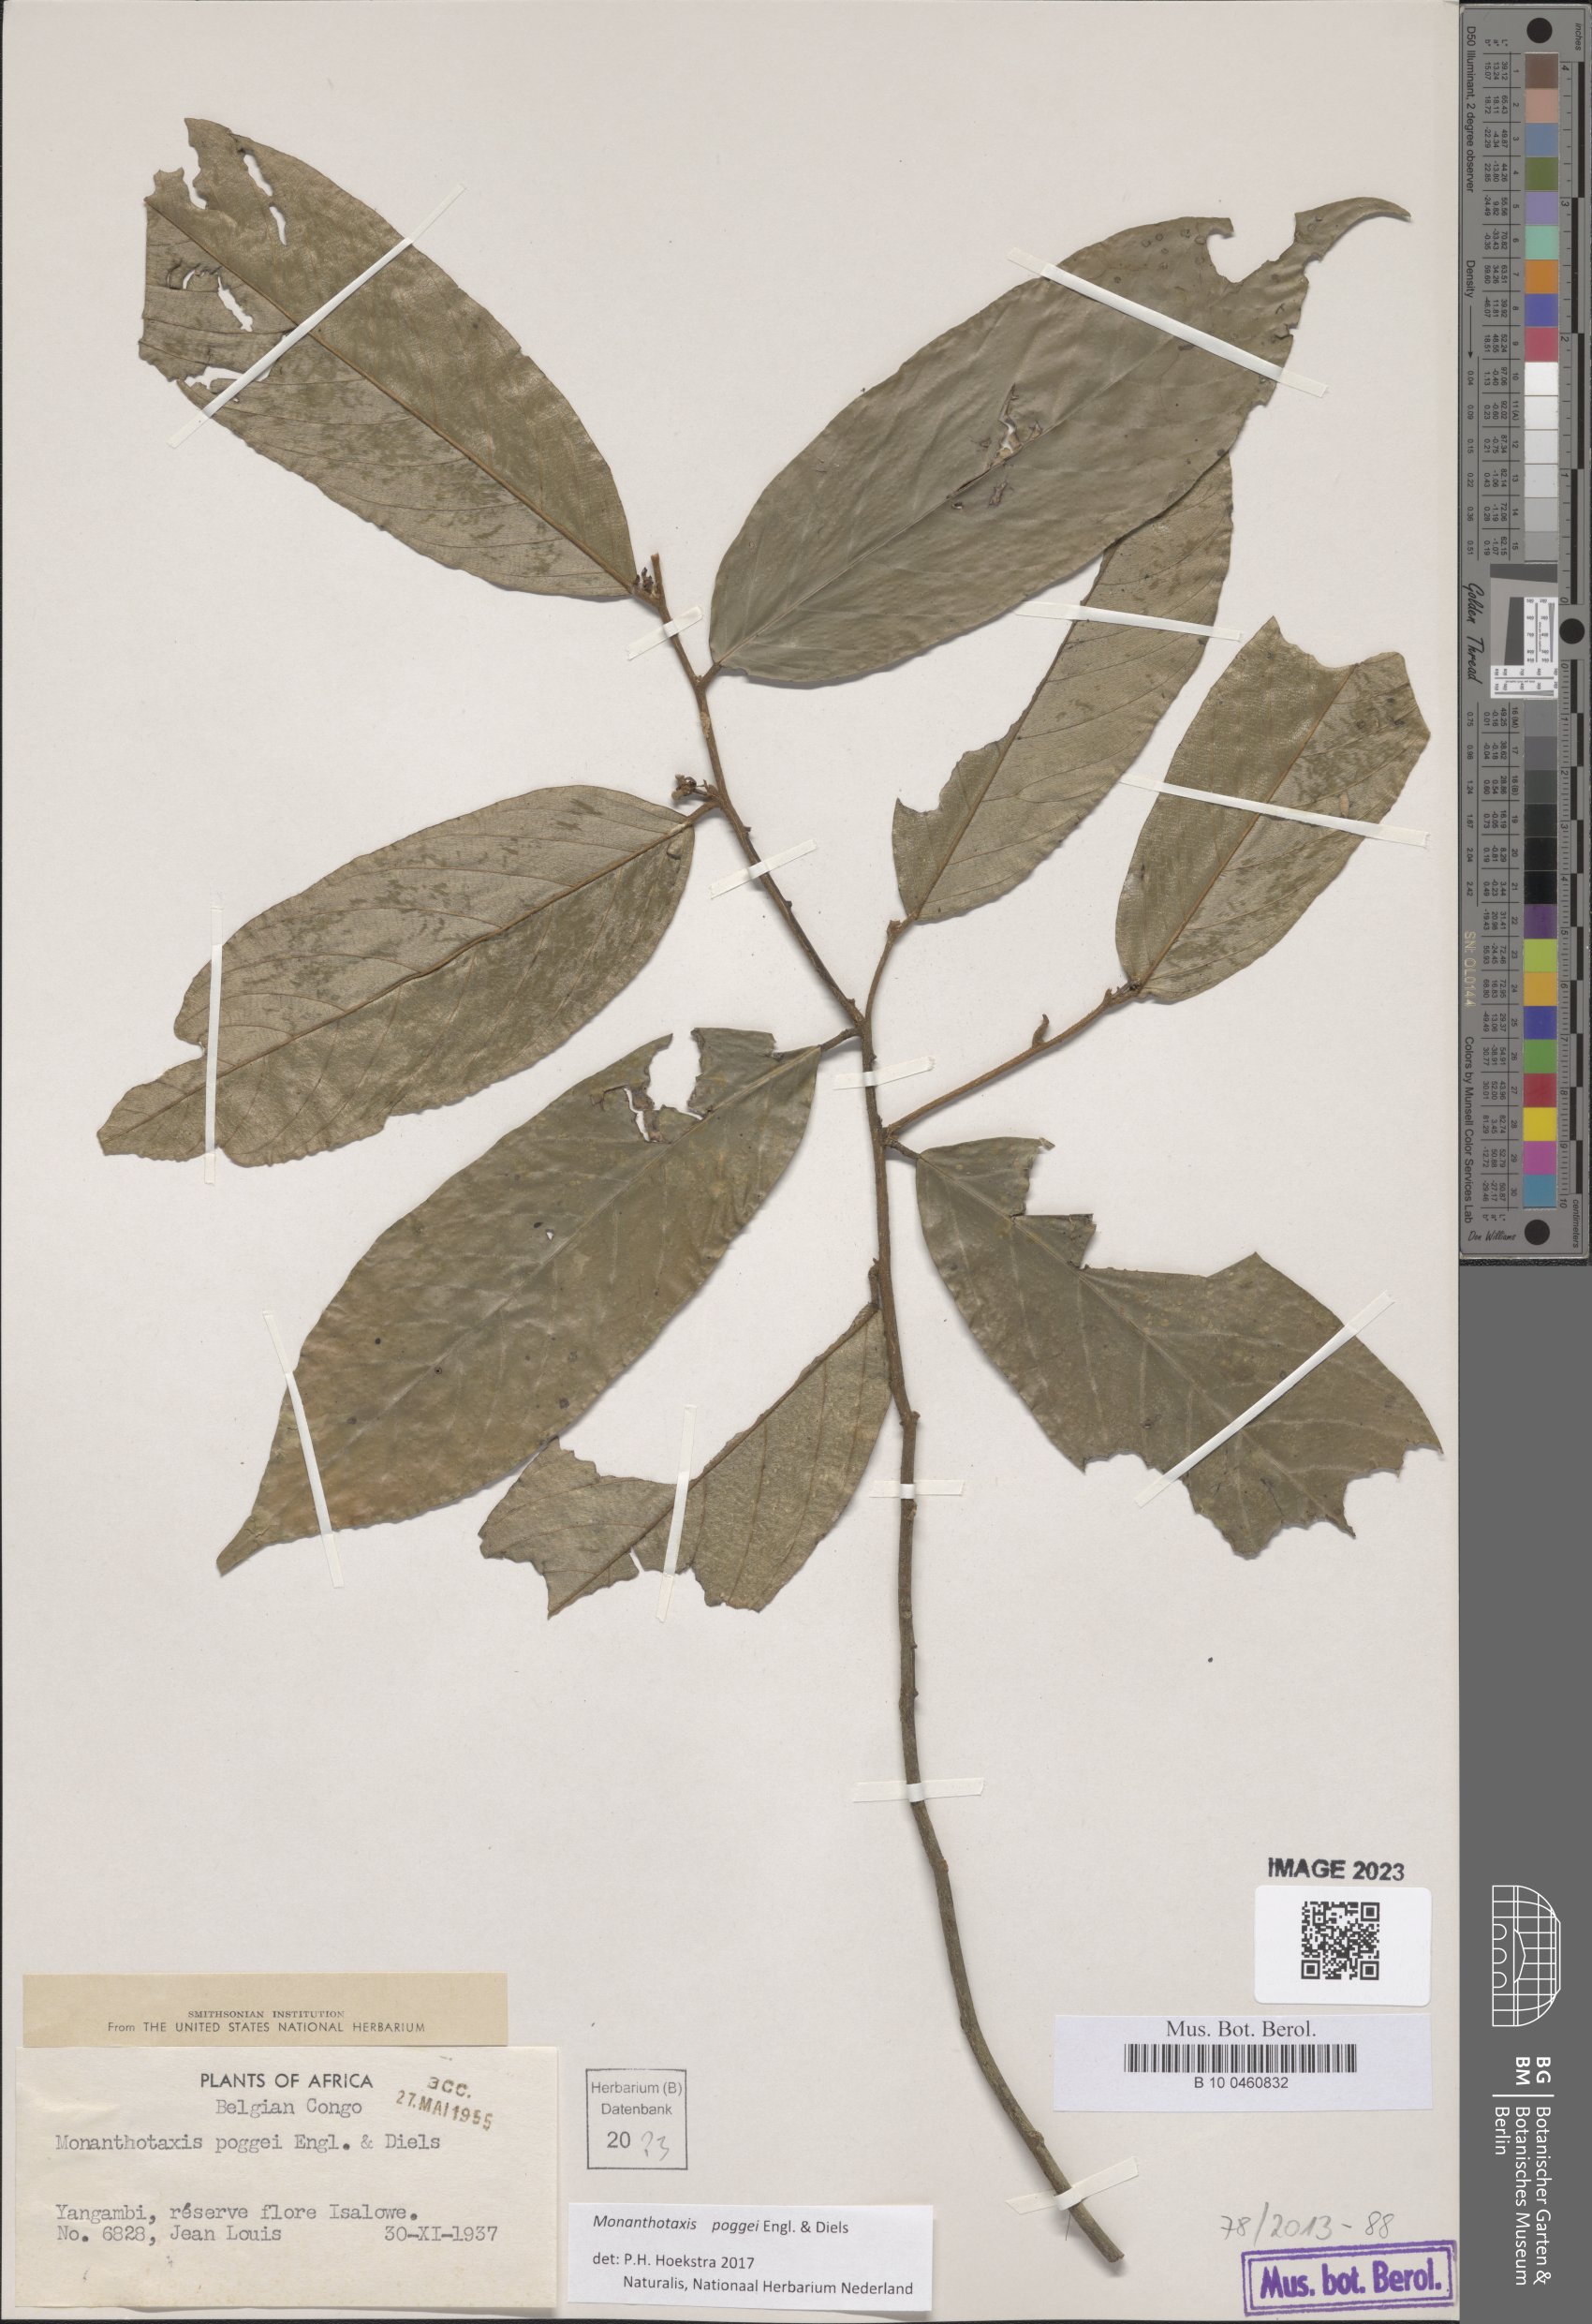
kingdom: Plantae
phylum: Tracheophyta
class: Magnoliopsida
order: Magnoliales
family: Annonaceae
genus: Monanthotaxis
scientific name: Monanthotaxis poggei
